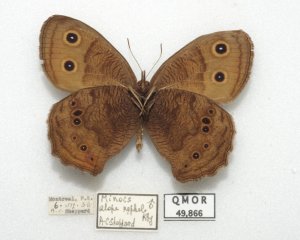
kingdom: Animalia
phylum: Arthropoda
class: Insecta
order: Lepidoptera
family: Nymphalidae
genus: Cercyonis
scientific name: Cercyonis pegala
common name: Common Wood-Nymph
